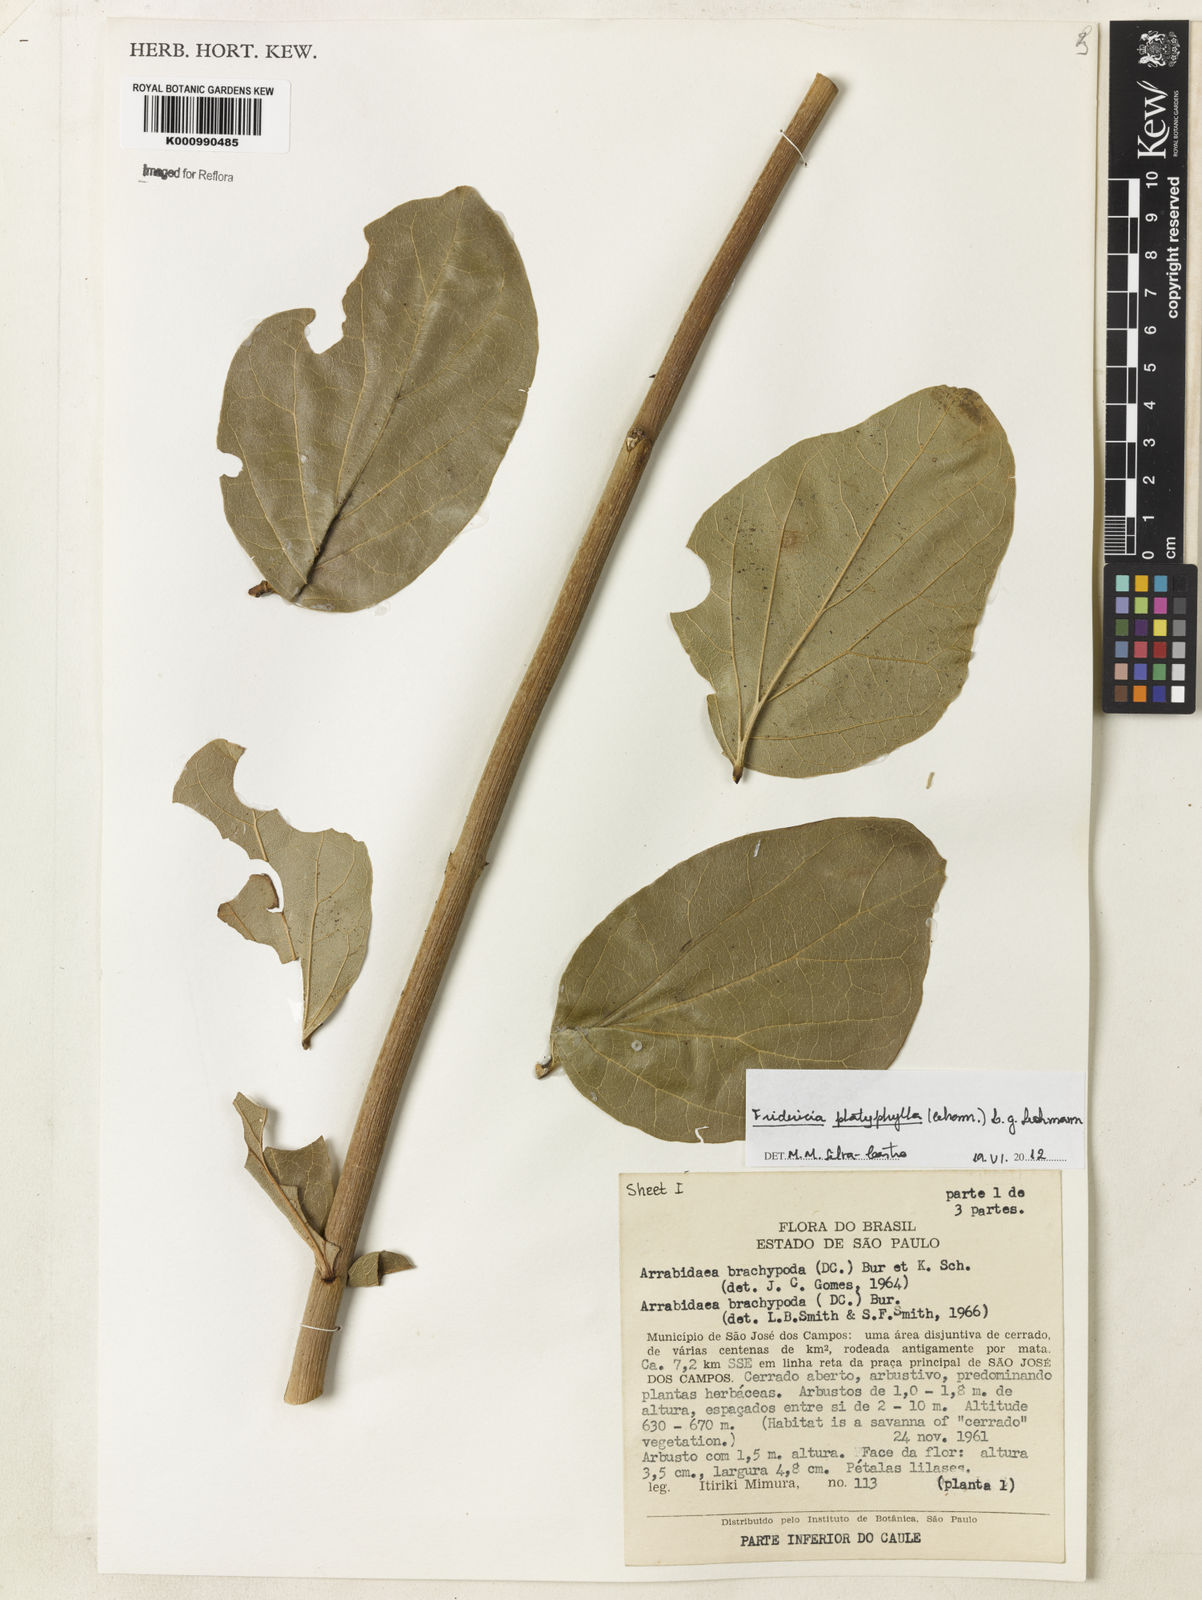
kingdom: Plantae
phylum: Tracheophyta
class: Magnoliopsida
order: Lamiales
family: Bignoniaceae
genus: Fridericia
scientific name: Fridericia platyphylla
